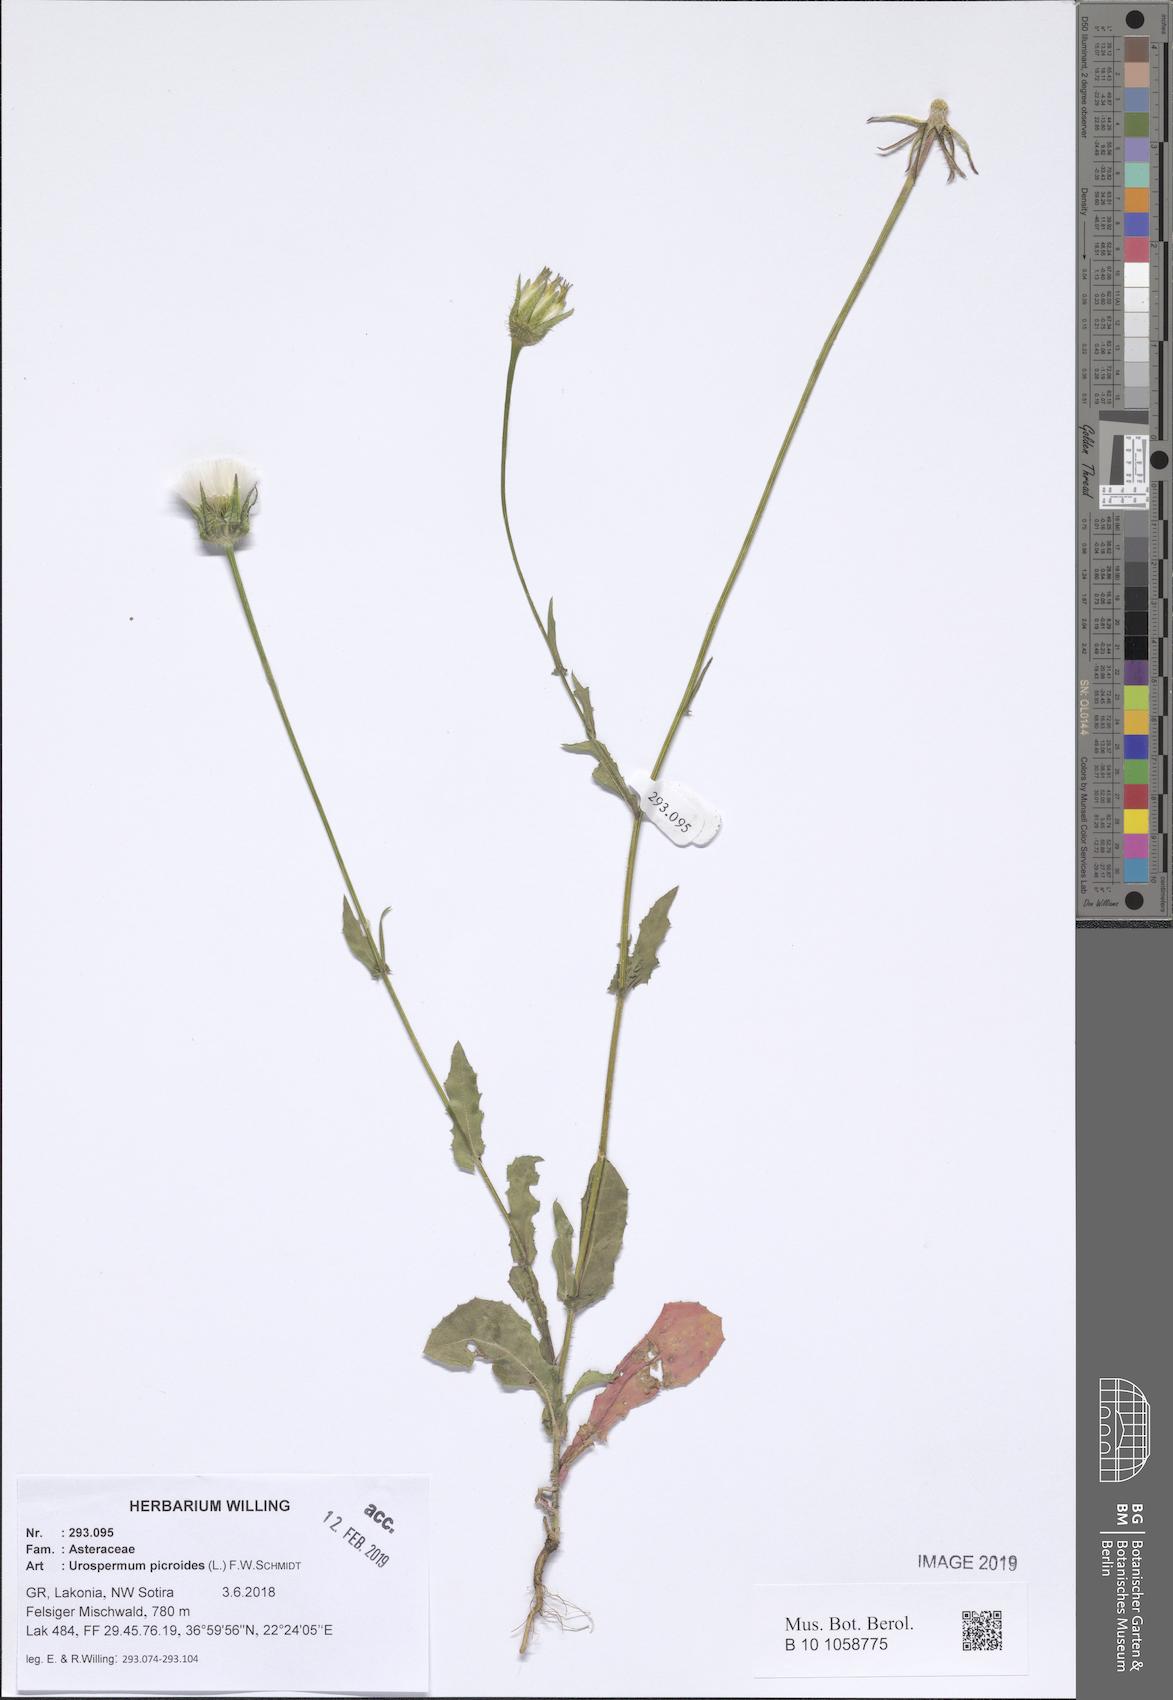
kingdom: Plantae
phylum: Tracheophyta
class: Magnoliopsida
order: Asterales
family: Asteraceae
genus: Urospermum
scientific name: Urospermum picroides
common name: False hawkbit
